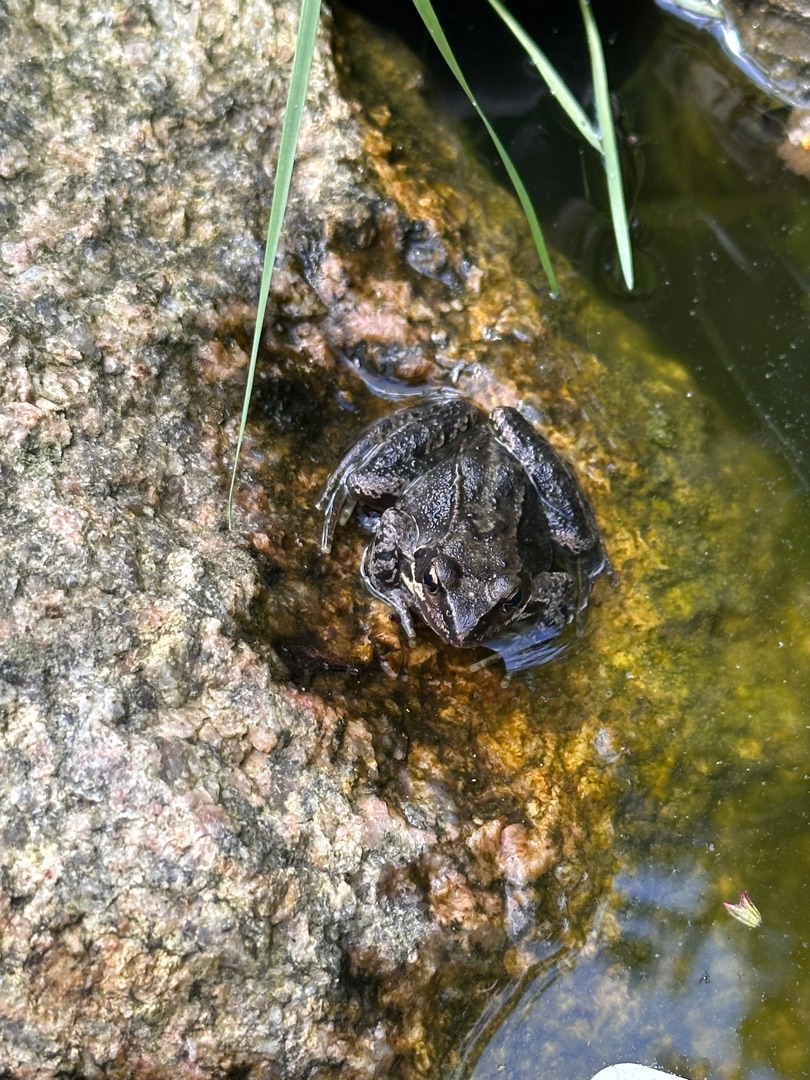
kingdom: Animalia
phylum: Chordata
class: Amphibia
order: Anura
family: Ranidae
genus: Rana
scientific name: Rana temporaria
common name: Butsnudet frø
